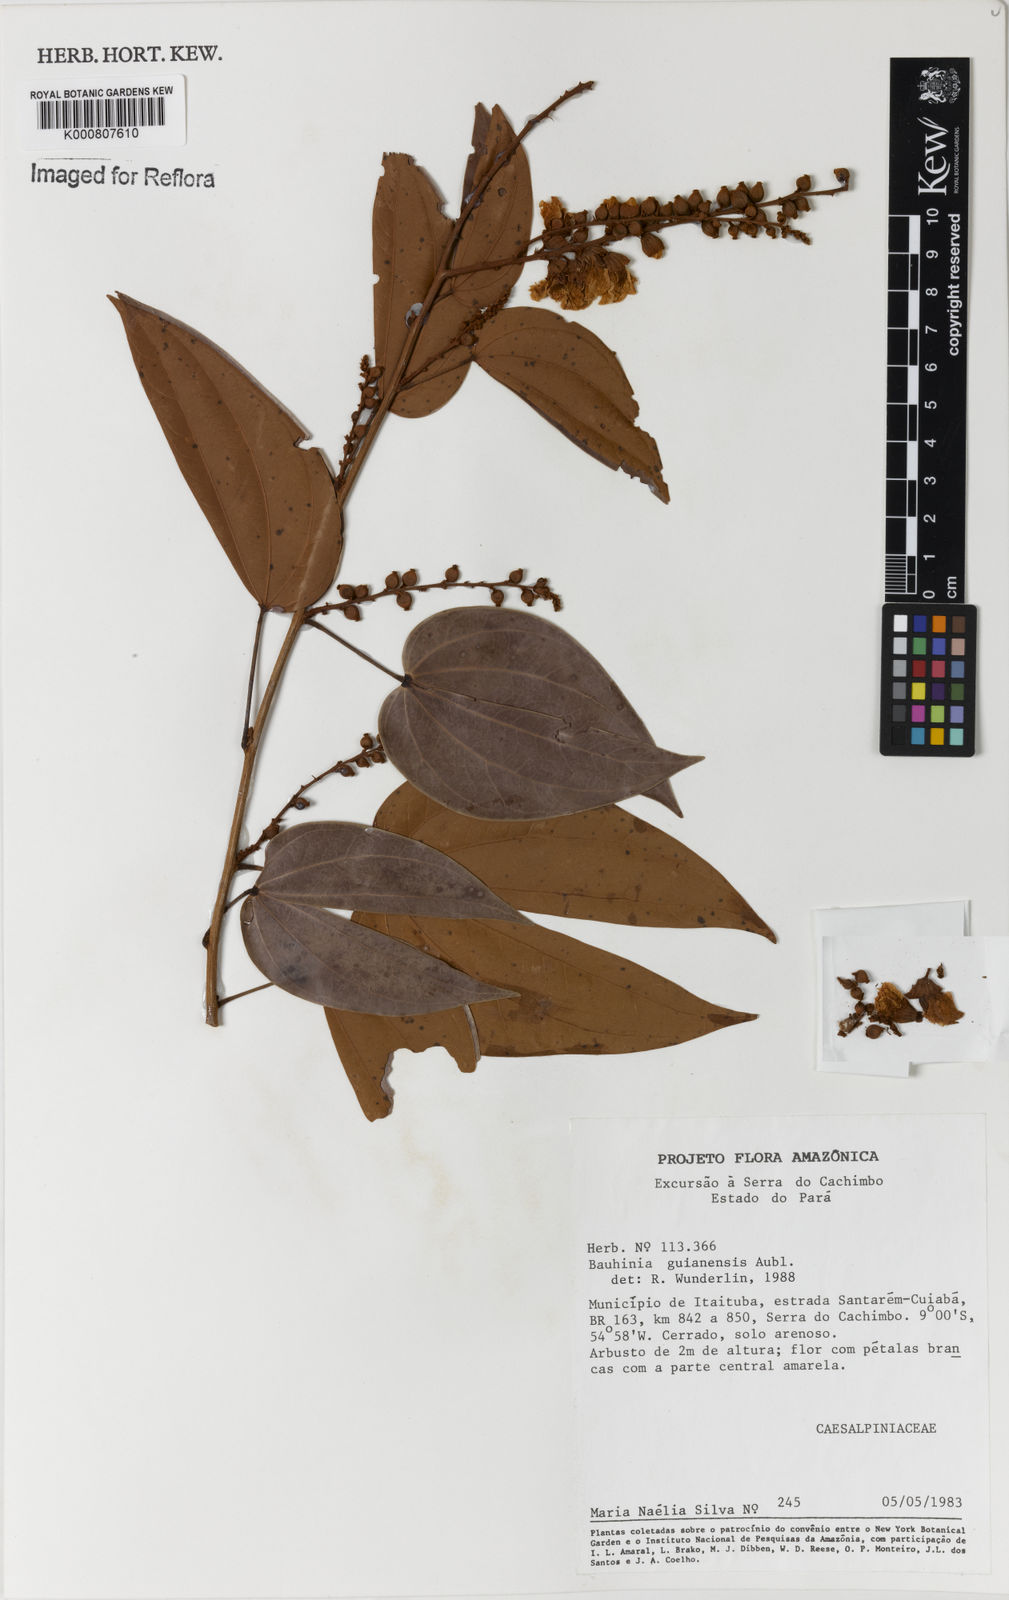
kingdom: Plantae
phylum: Tracheophyta
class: Magnoliopsida
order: Fabales
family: Fabaceae
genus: Schnella
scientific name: Schnella guianensis
